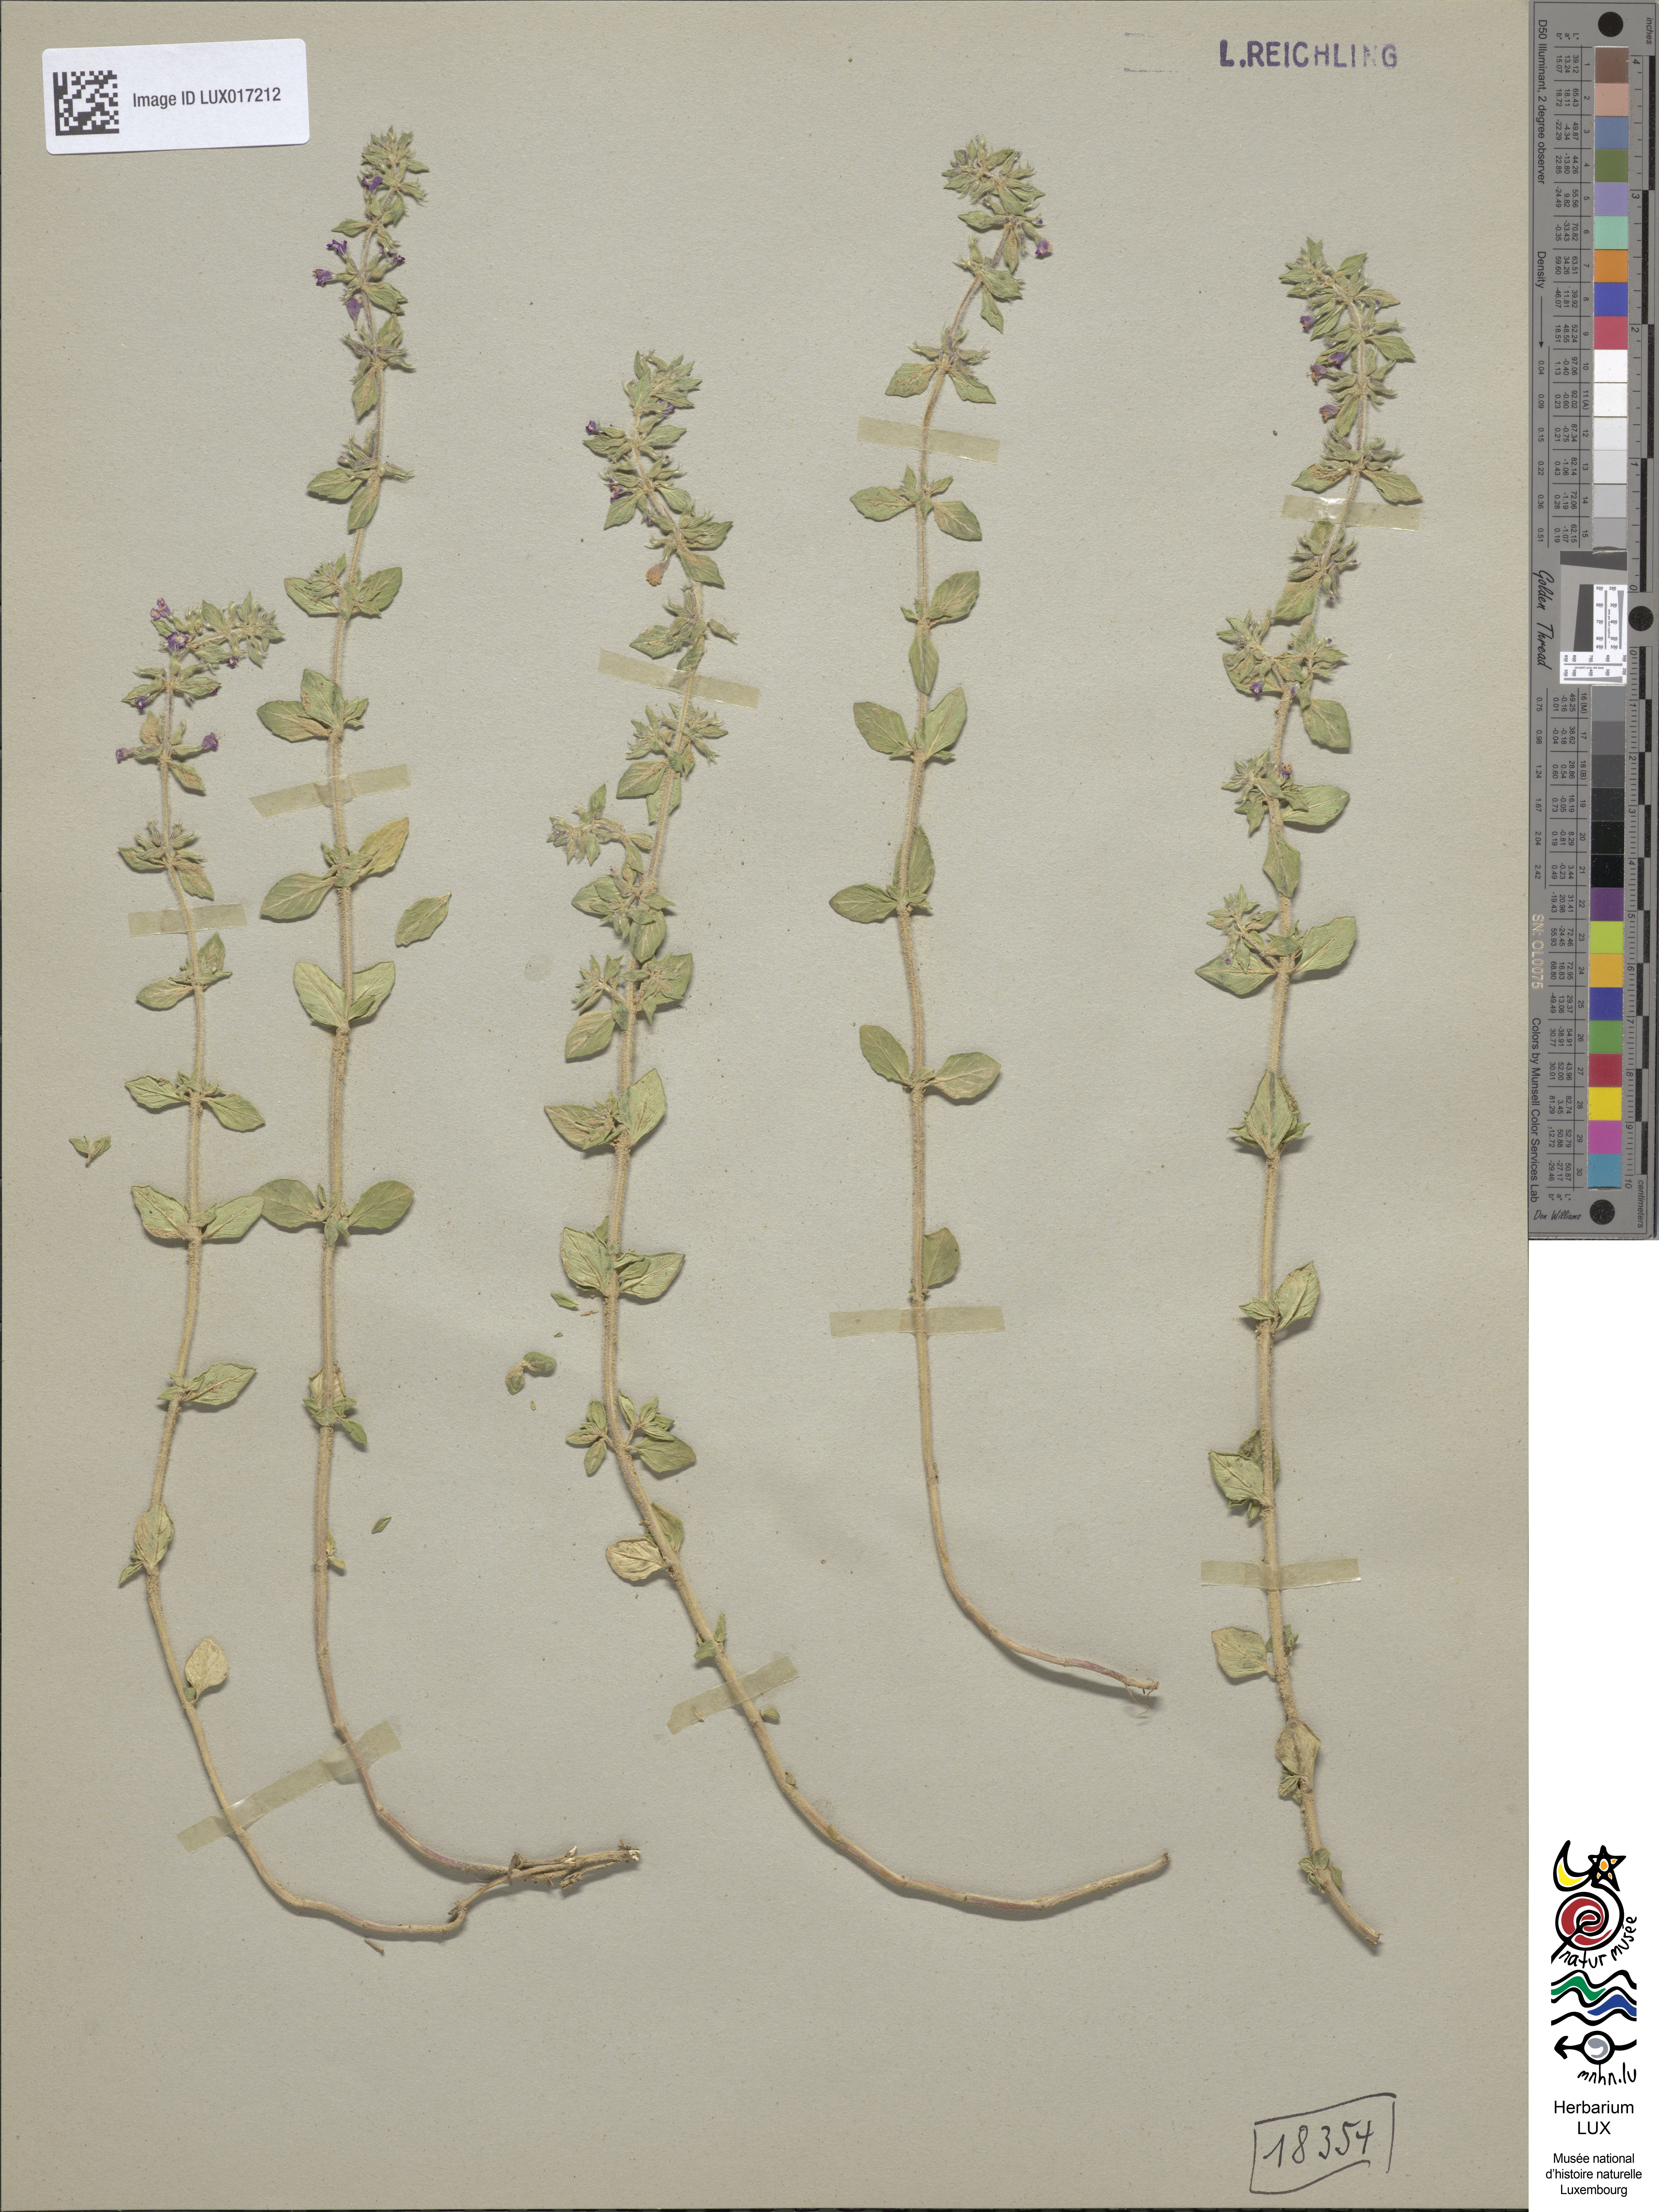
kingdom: Plantae
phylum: Tracheophyta
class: Magnoliopsida
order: Lamiales
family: Lamiaceae
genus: Clinopodium
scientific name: Clinopodium acinos
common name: Basil thyme
